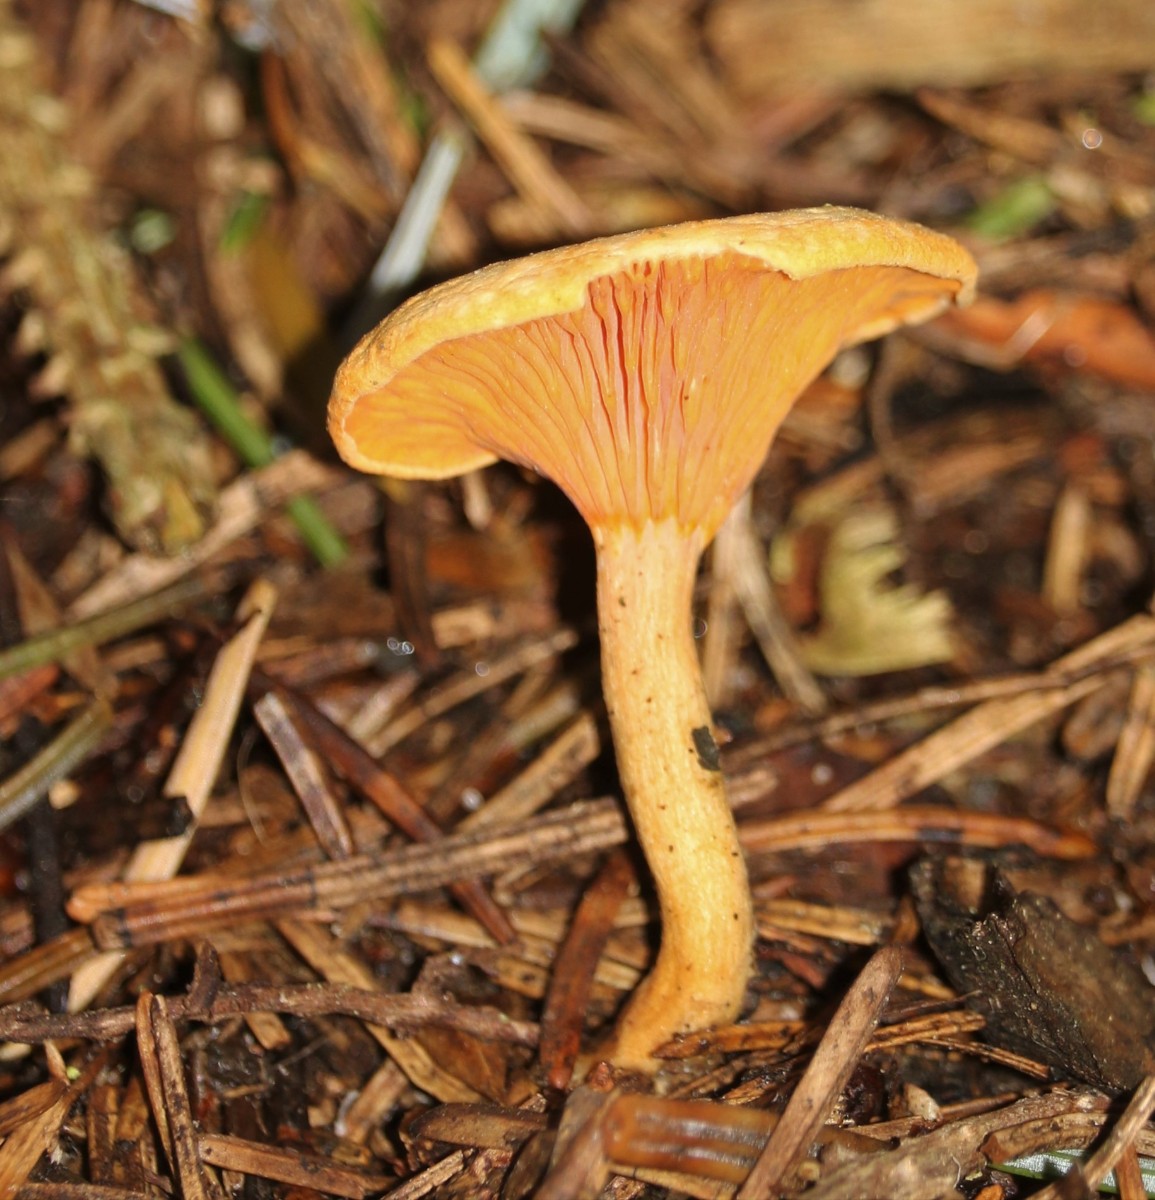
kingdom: Fungi
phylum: Basidiomycota
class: Agaricomycetes
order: Boletales
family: Hygrophoropsidaceae
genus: Hygrophoropsis
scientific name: Hygrophoropsis aurantiaca
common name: almindelig orangekantarel
